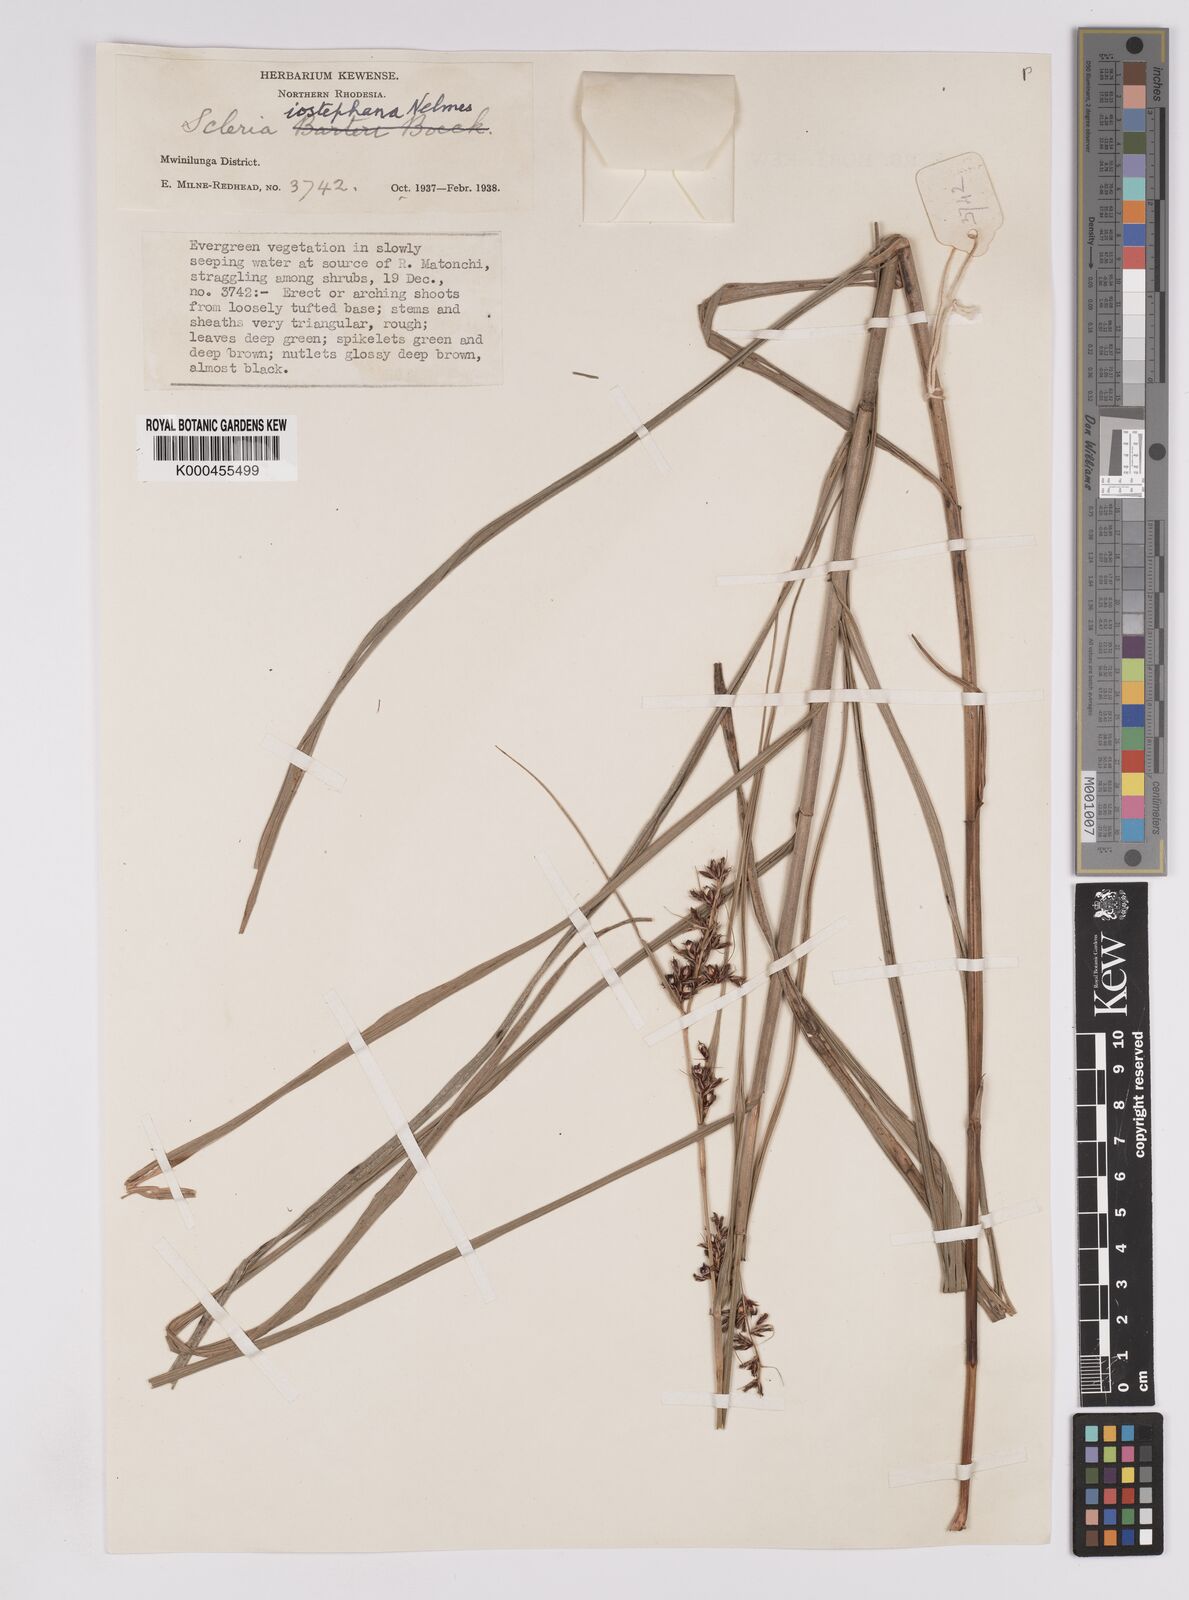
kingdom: Plantae
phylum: Tracheophyta
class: Liliopsida
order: Poales
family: Cyperaceae
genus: Scleria
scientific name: Scleria iostephana
